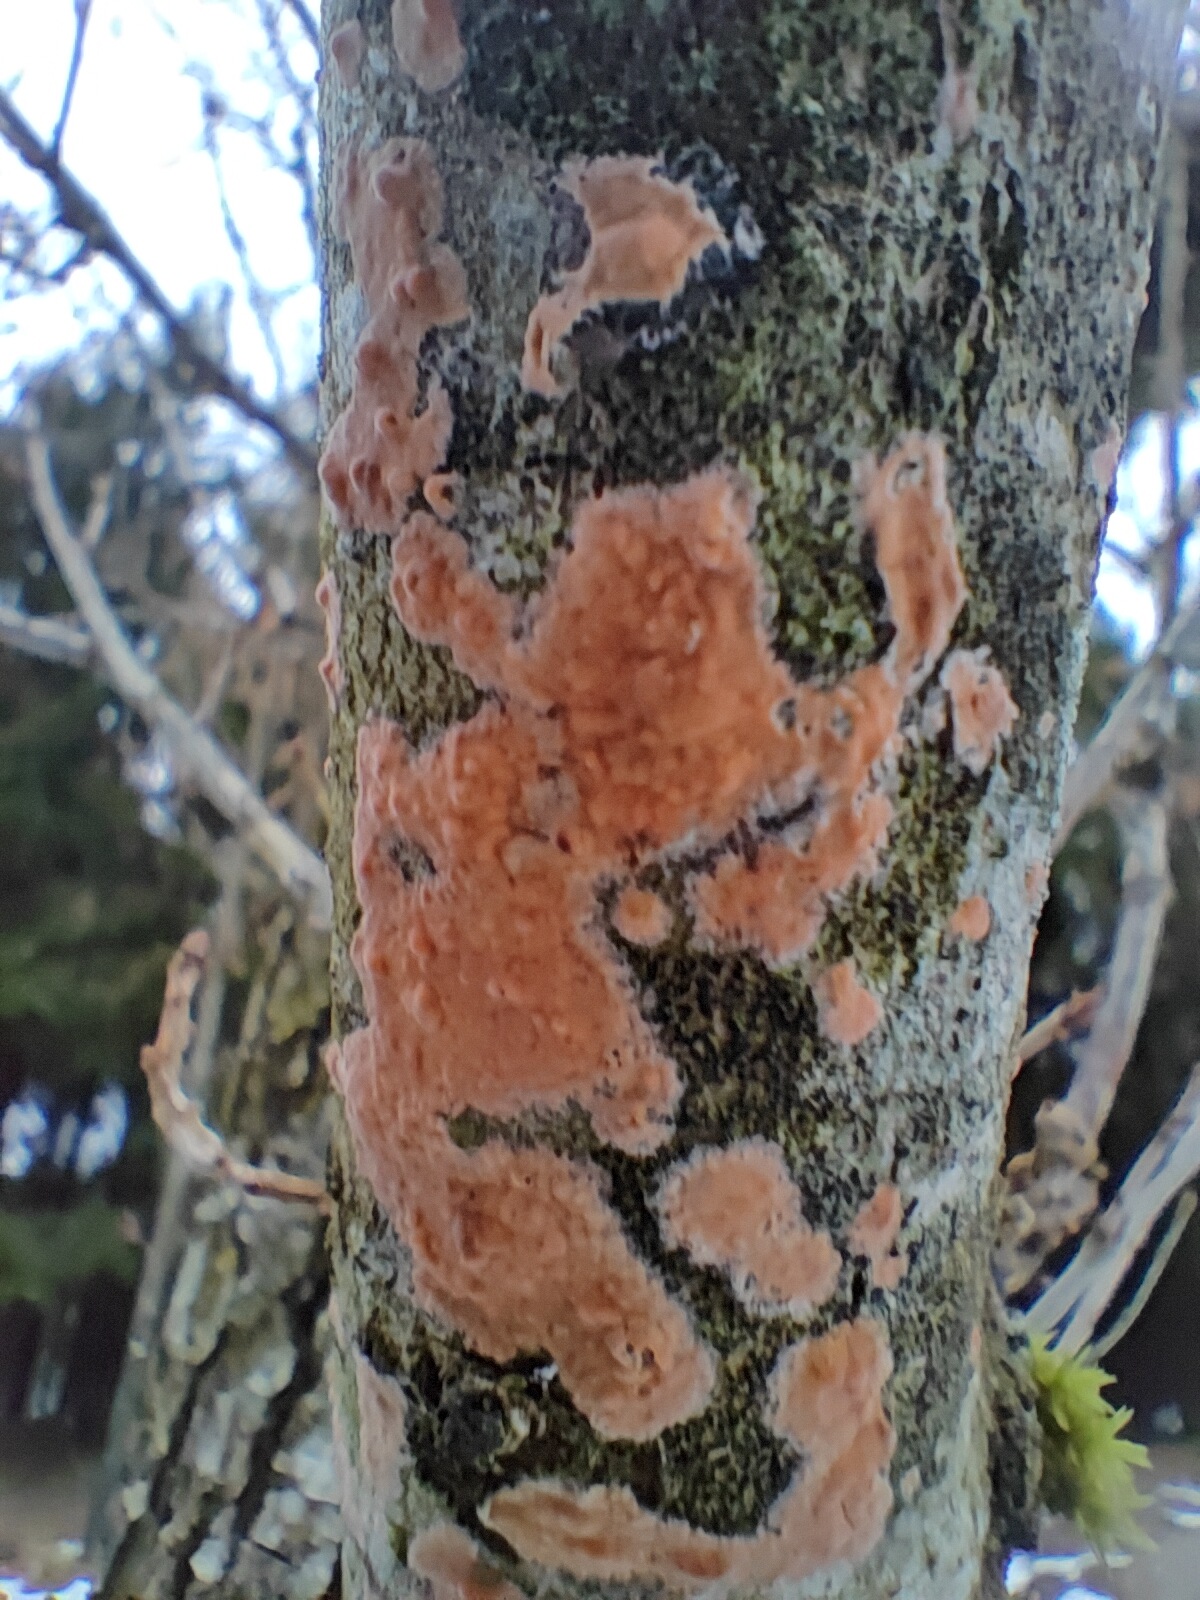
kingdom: Fungi
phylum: Basidiomycota
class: Agaricomycetes
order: Russulales
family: Peniophoraceae
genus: Peniophora
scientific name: Peniophora incarnata
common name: laksefarvet voksskind
